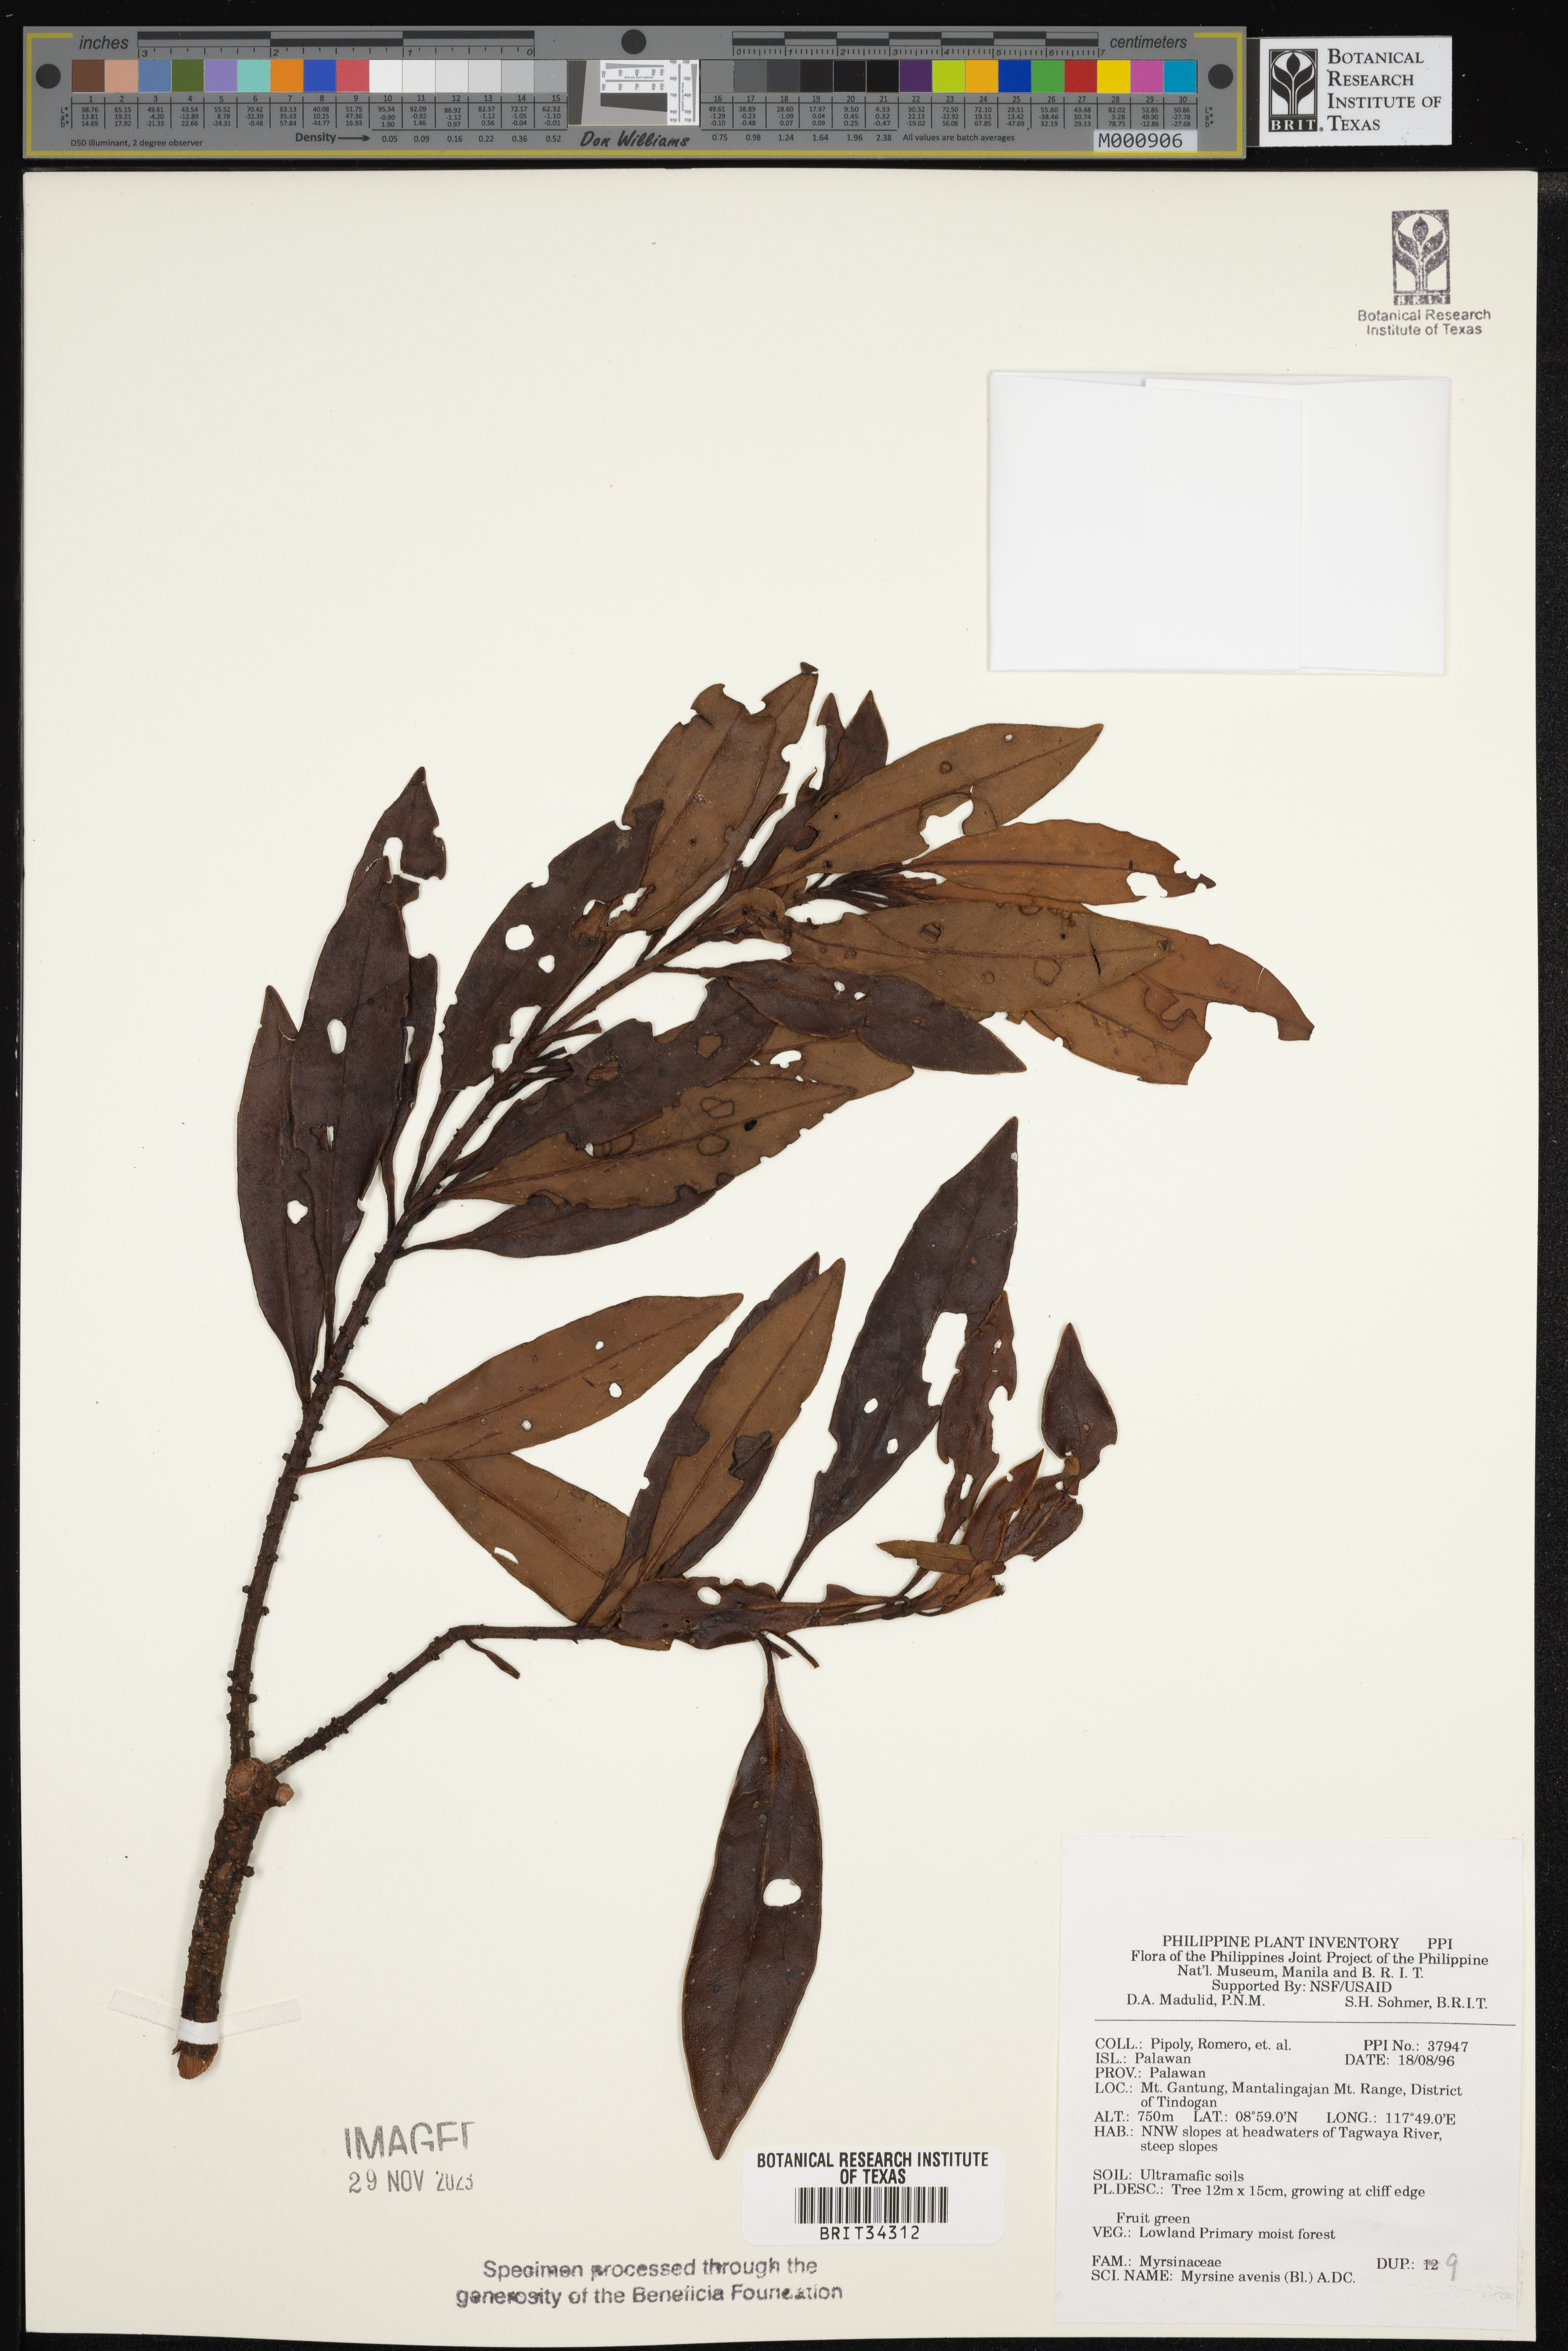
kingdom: Plantae
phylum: Tracheophyta
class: Magnoliopsida
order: Ericales
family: Primulaceae
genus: Myrsine
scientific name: Myrsine avenis
